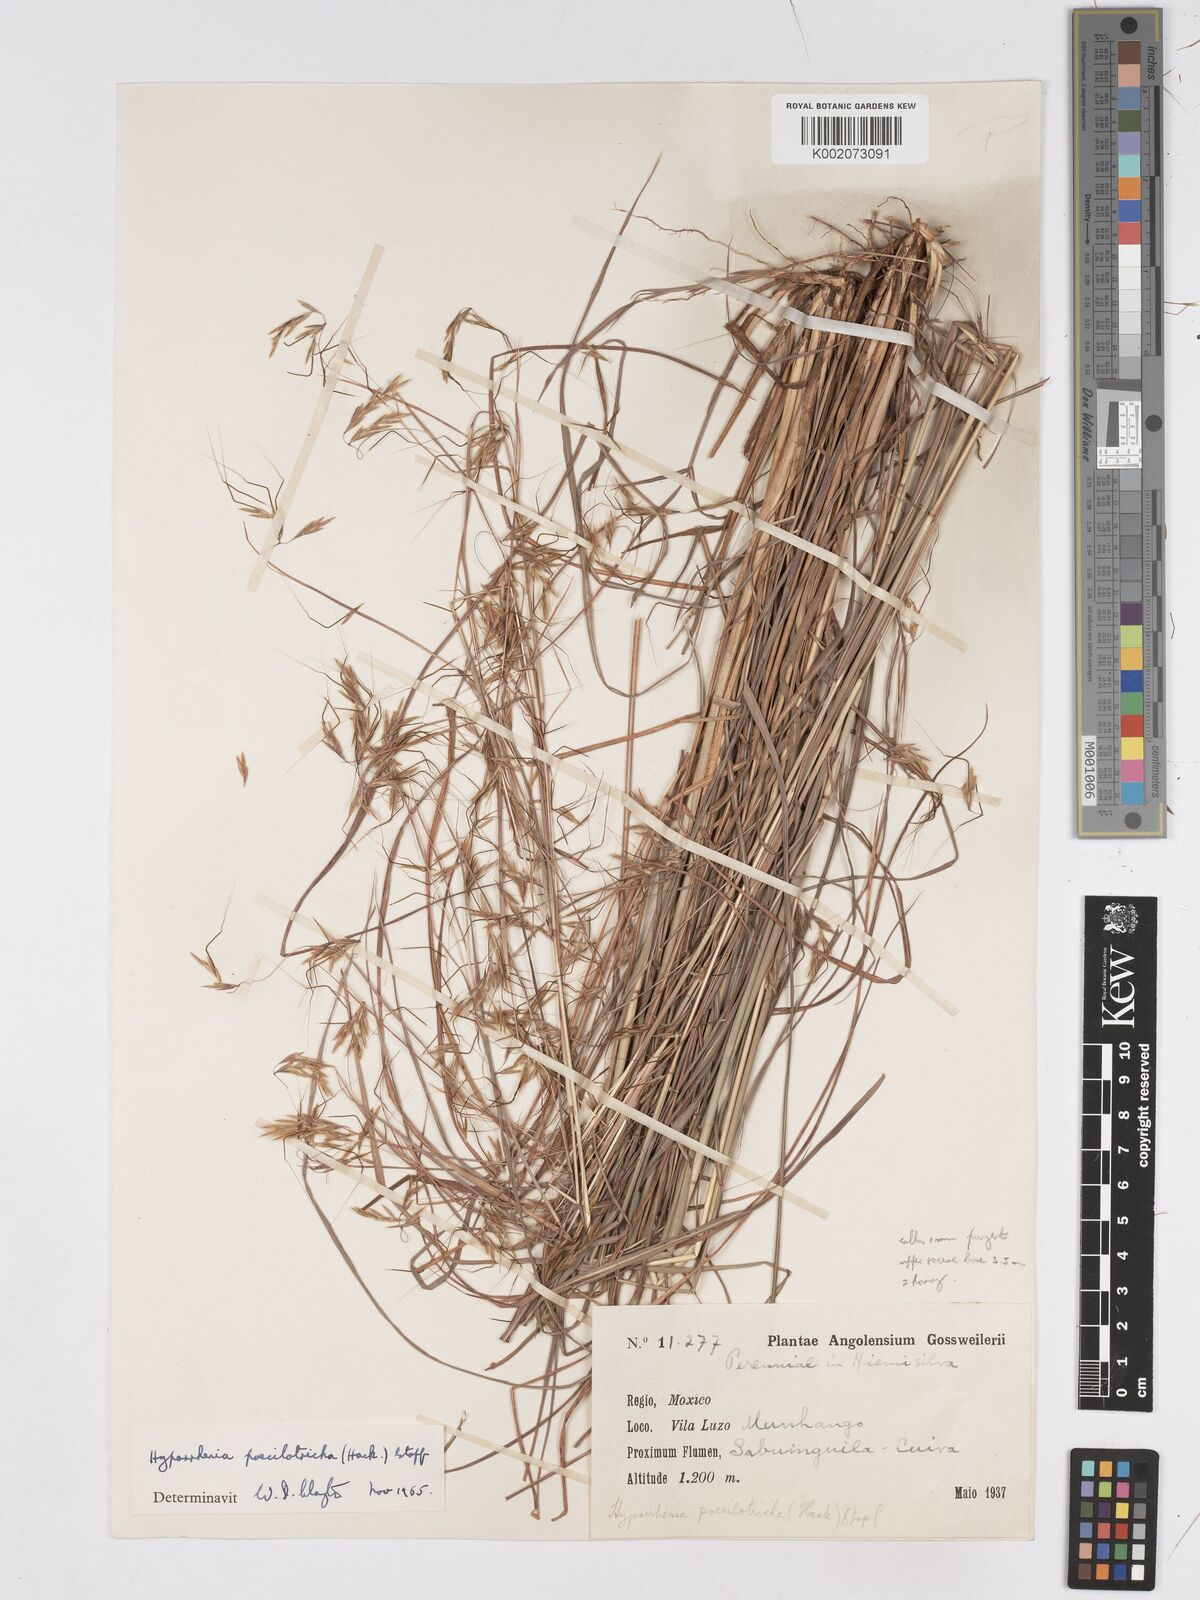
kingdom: Plantae
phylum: Tracheophyta
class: Liliopsida
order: Poales
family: Poaceae
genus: Hyparrhenia
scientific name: Hyparrhenia poecilotricha
